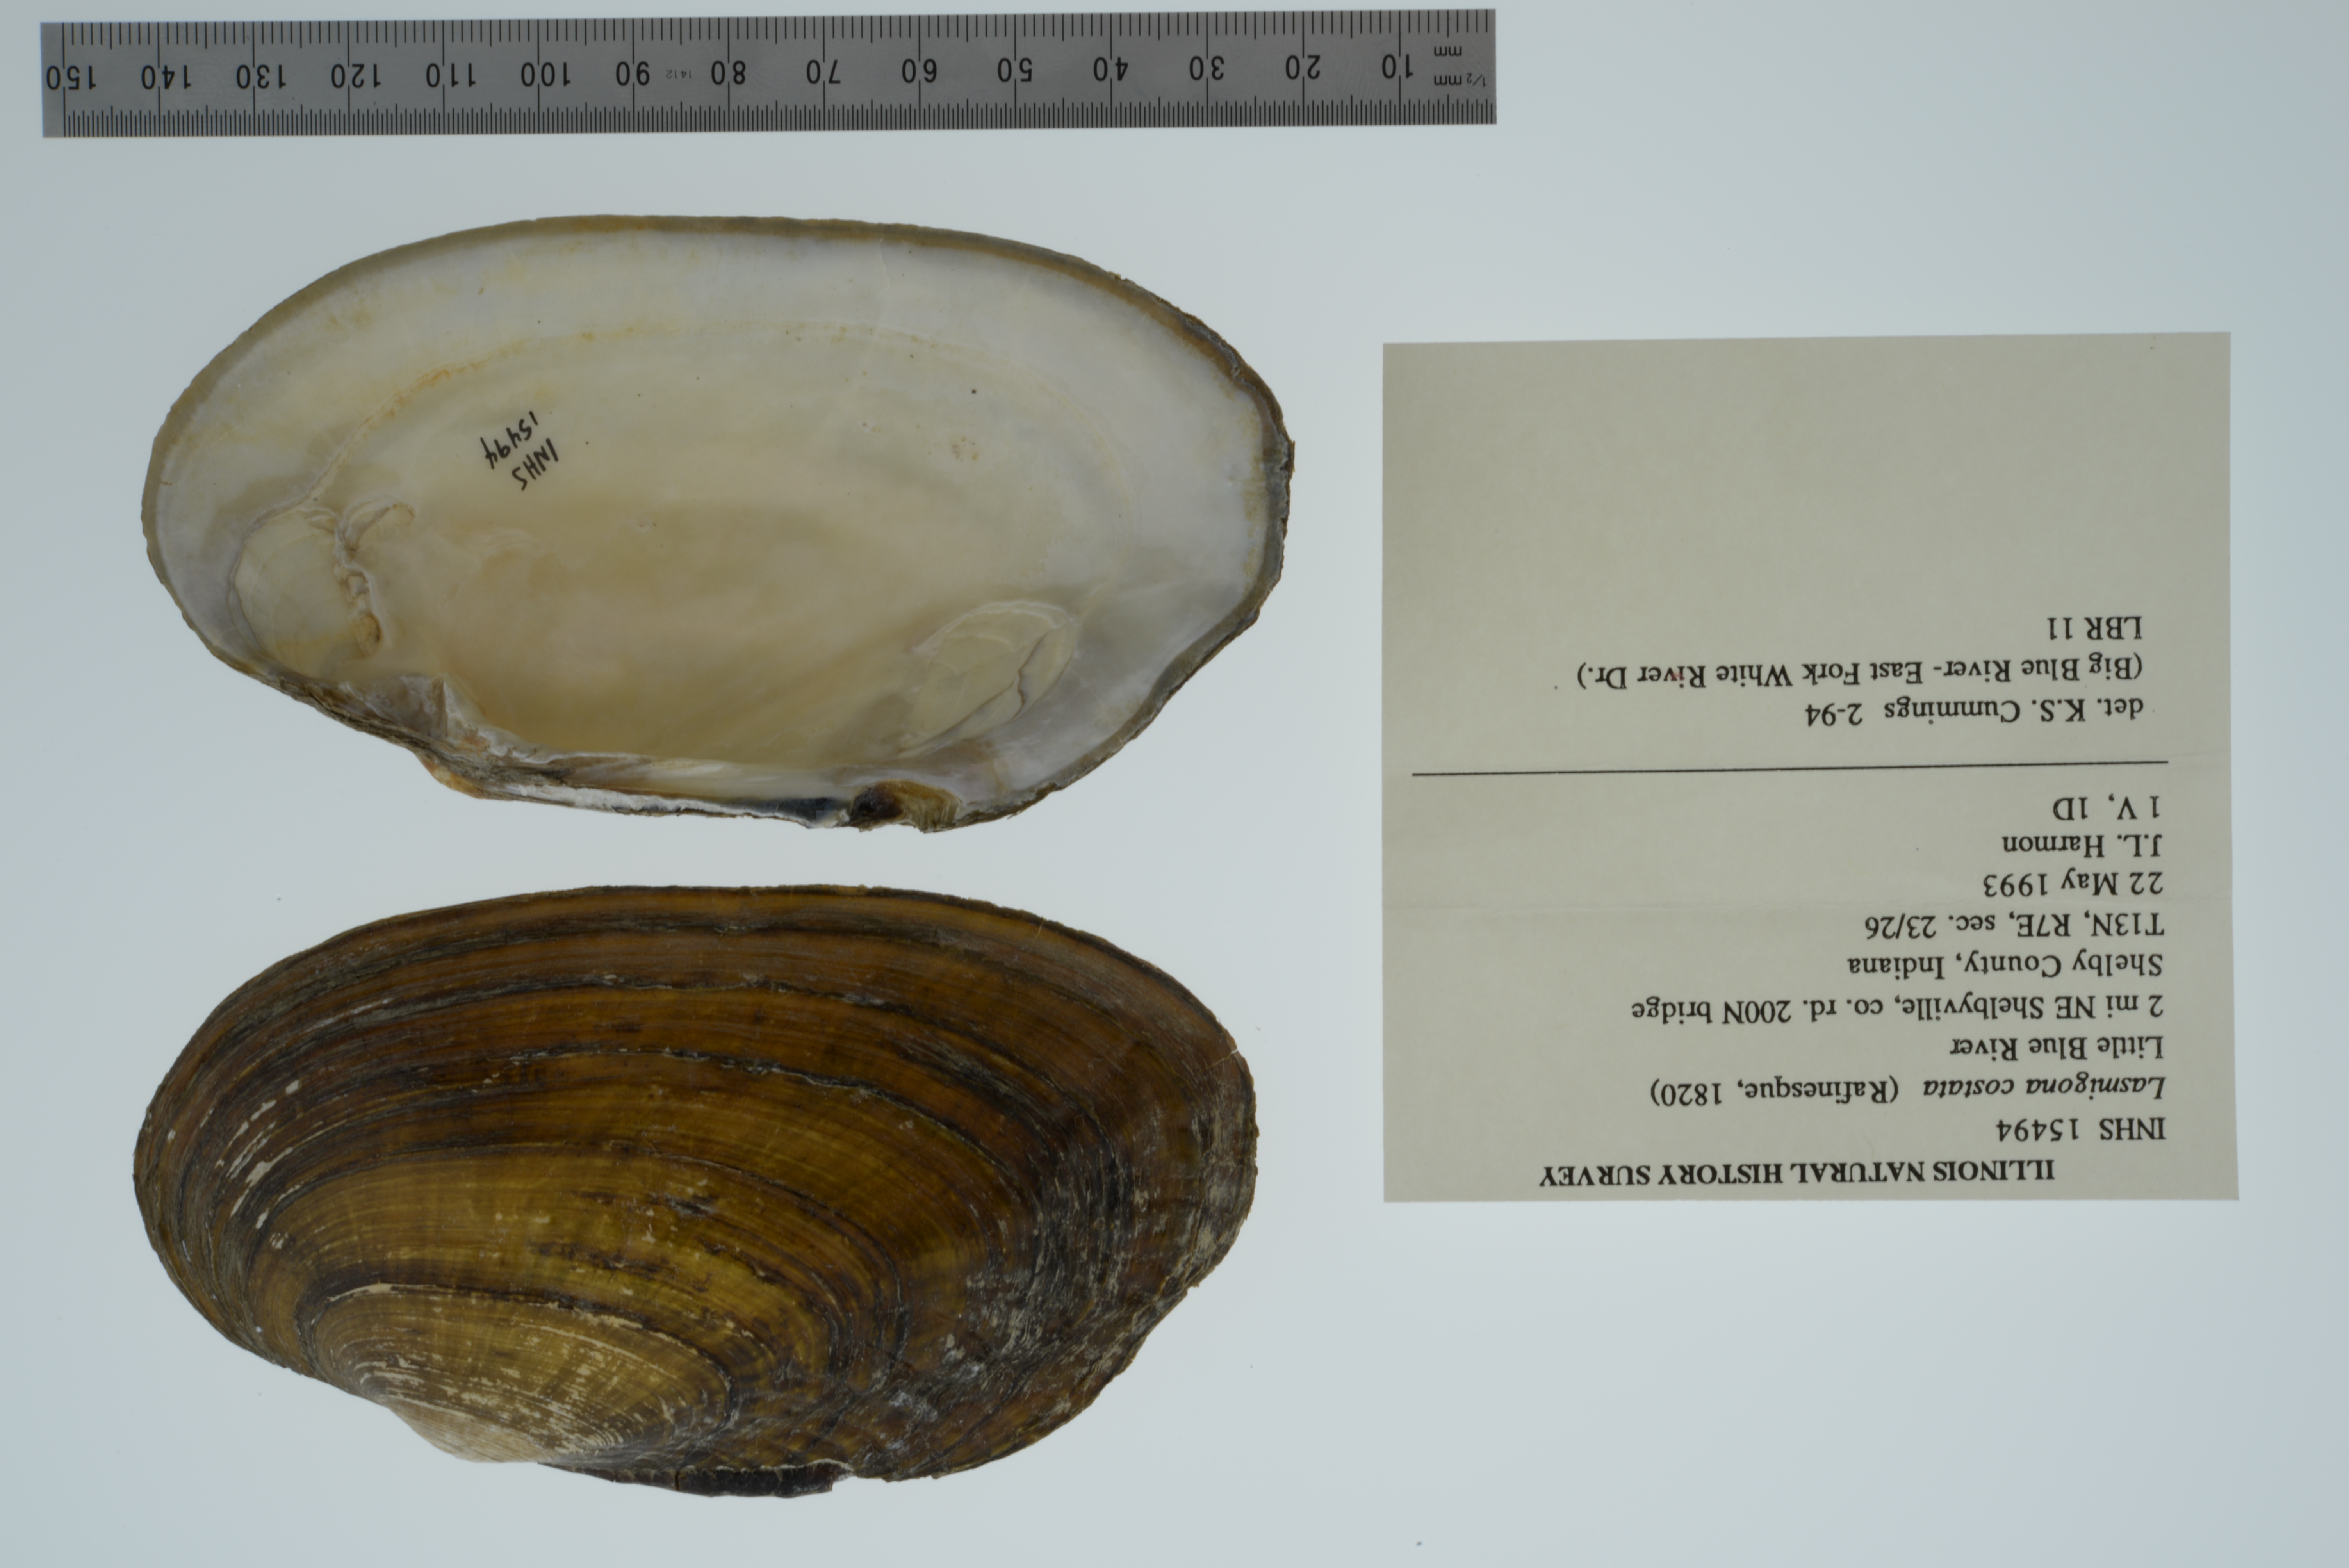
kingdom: Animalia
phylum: Mollusca
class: Bivalvia
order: Unionida
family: Unionidae
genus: Lasmigona
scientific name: Lasmigona costata
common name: Flutedshell
